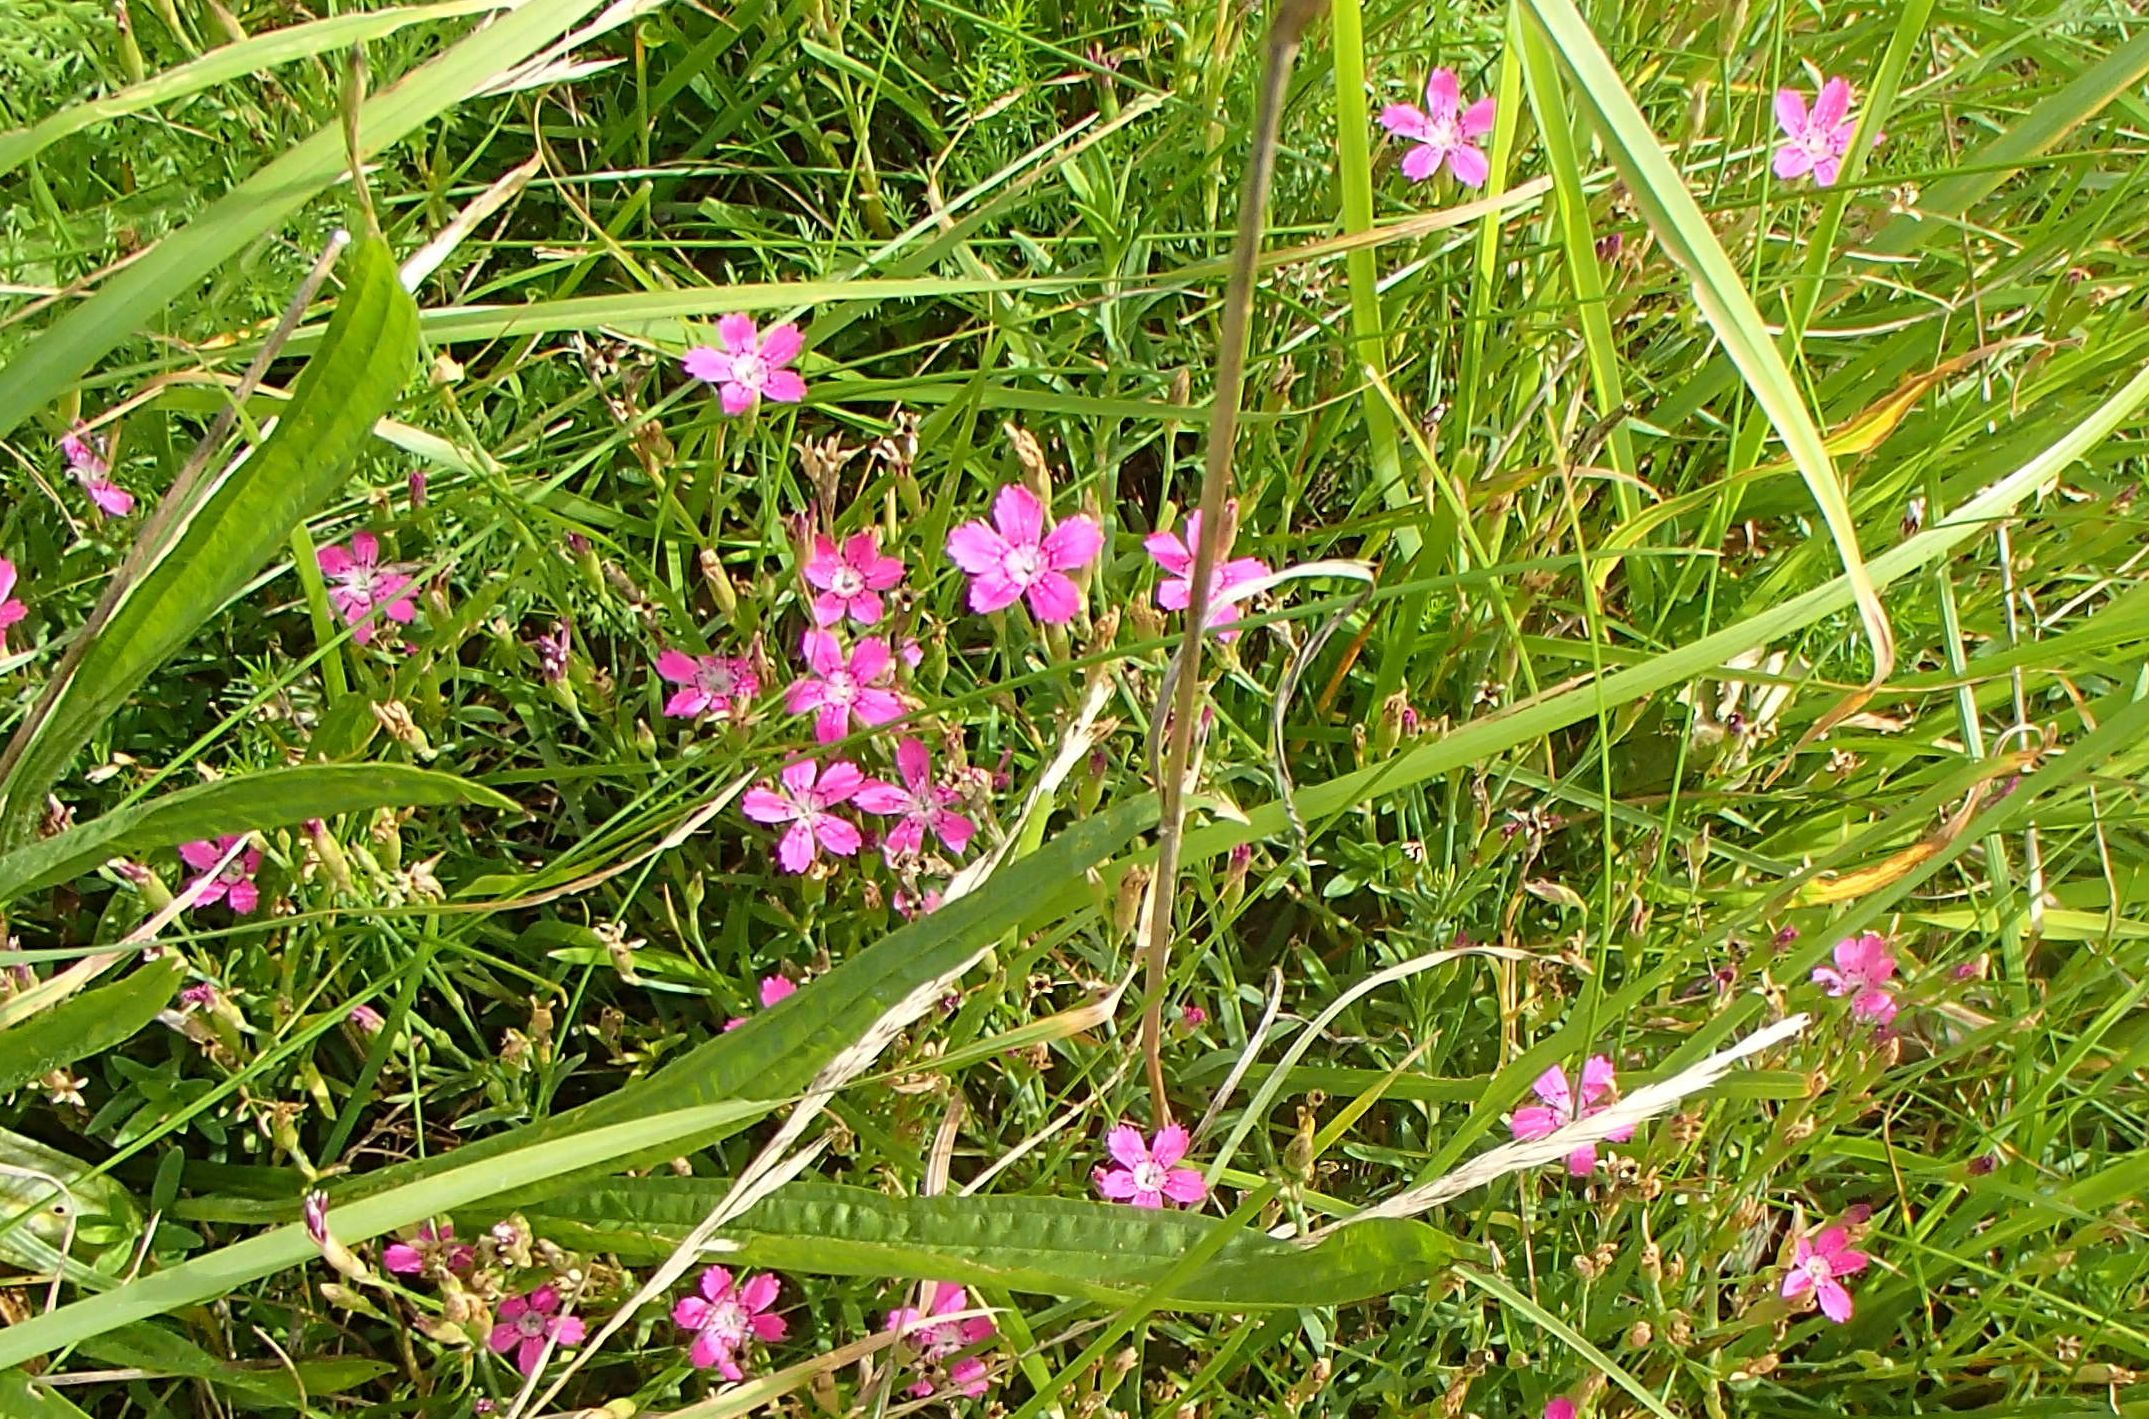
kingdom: Plantae
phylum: Tracheophyta
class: Magnoliopsida
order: Caryophyllales
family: Caryophyllaceae
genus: Dianthus
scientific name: Dianthus deltoides
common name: Bakke-nellike
